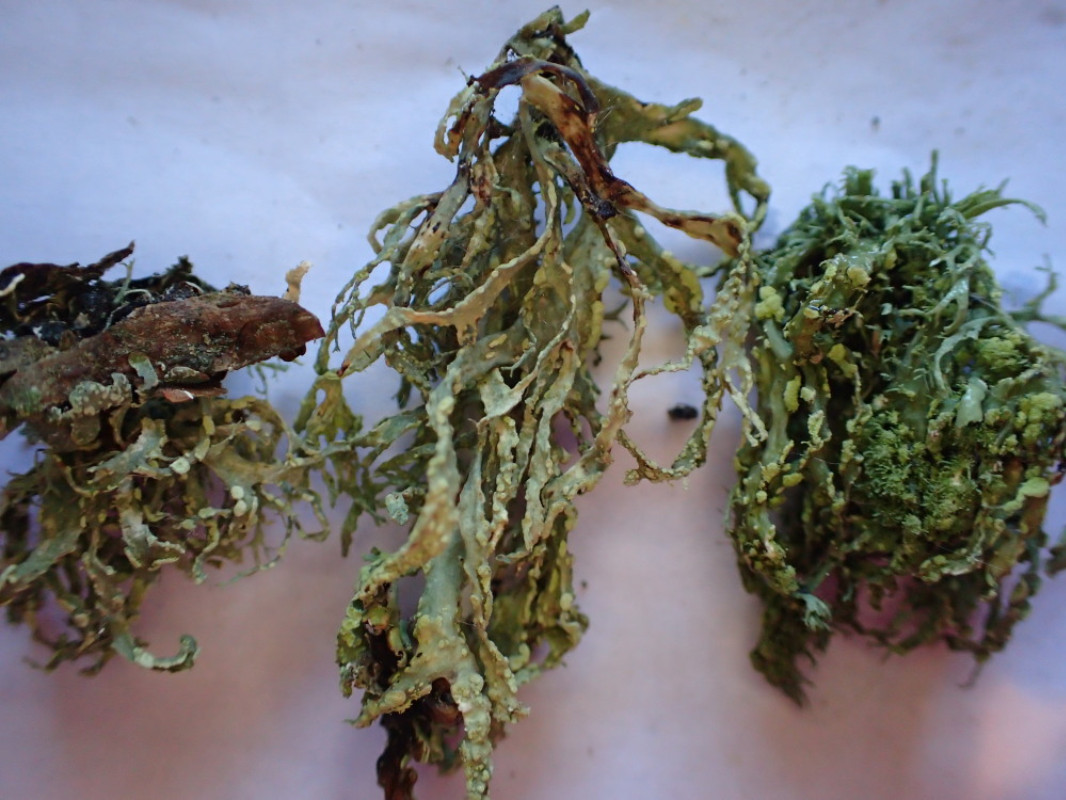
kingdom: Fungi
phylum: Ascomycota
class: Lecanoromycetes
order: Lecanorales
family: Ramalinaceae
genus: Ramalina
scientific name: Ramalina farinacea
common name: melet grenlav
